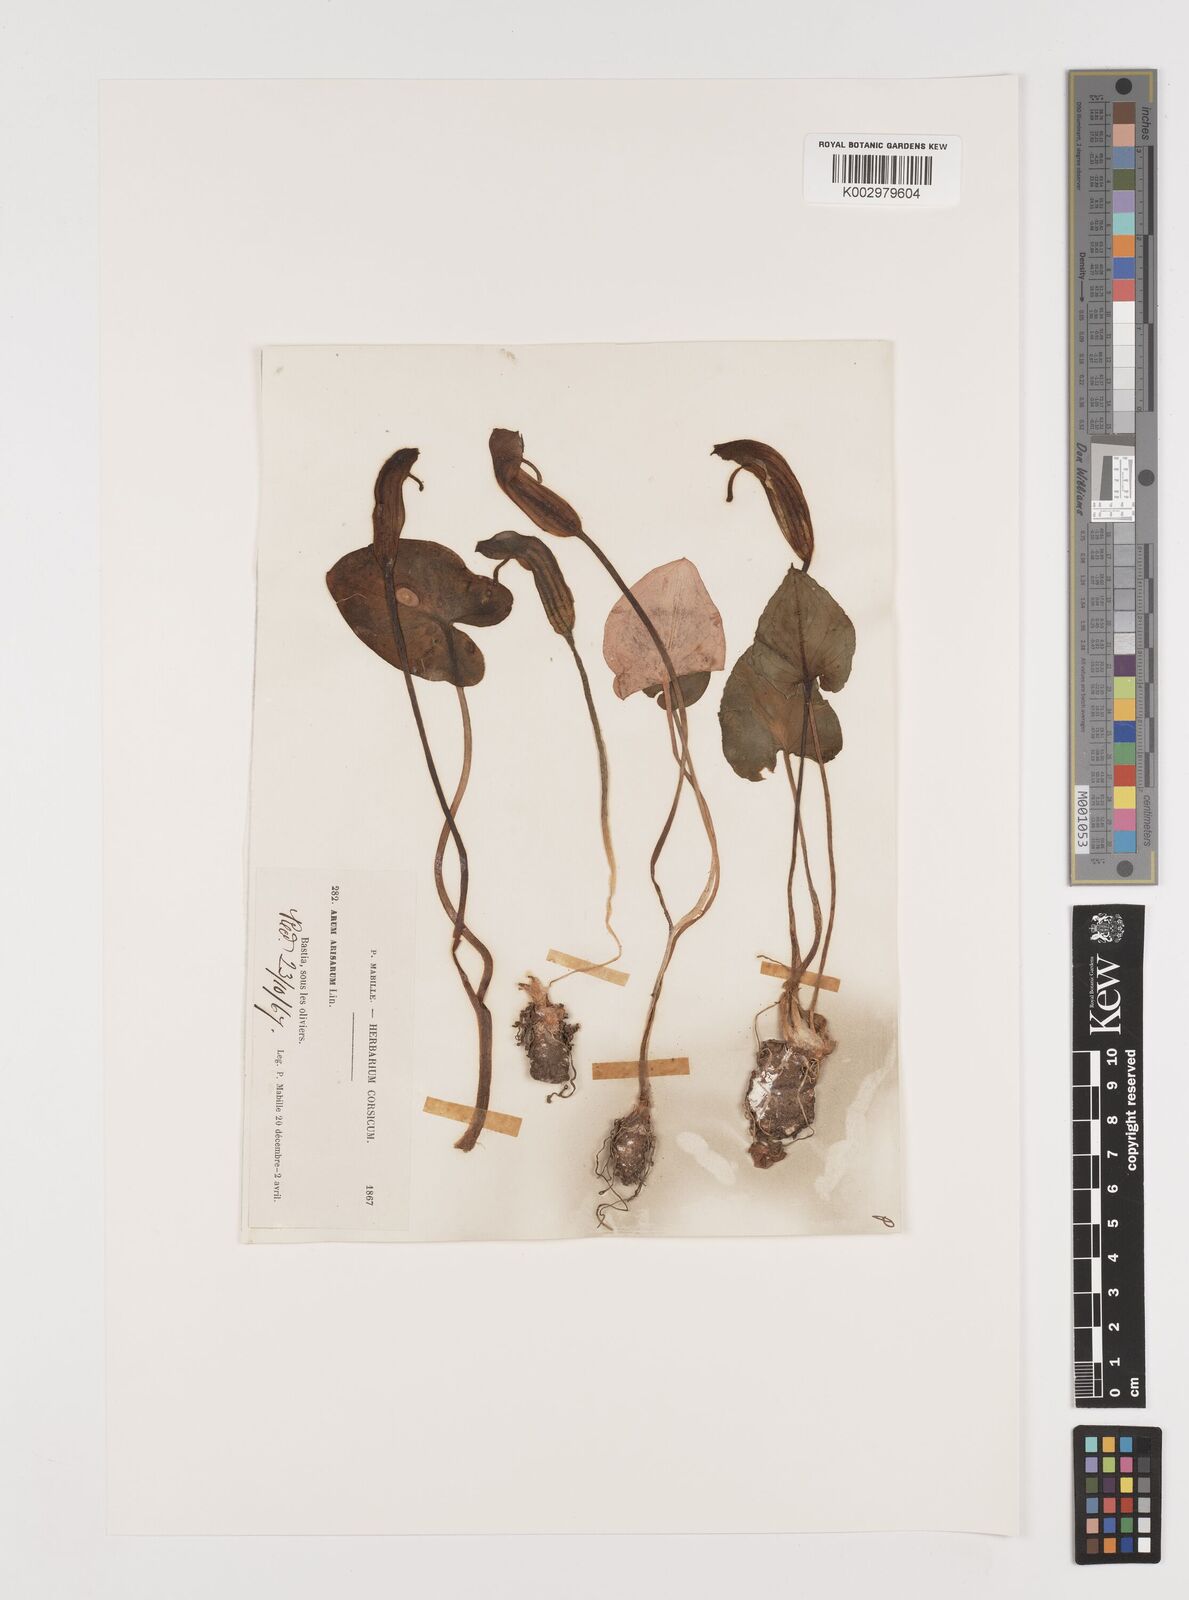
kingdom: Plantae
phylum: Tracheophyta
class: Liliopsida
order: Alismatales
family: Araceae
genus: Arisarum
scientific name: Arisarum vulgare
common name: Common arisarum
